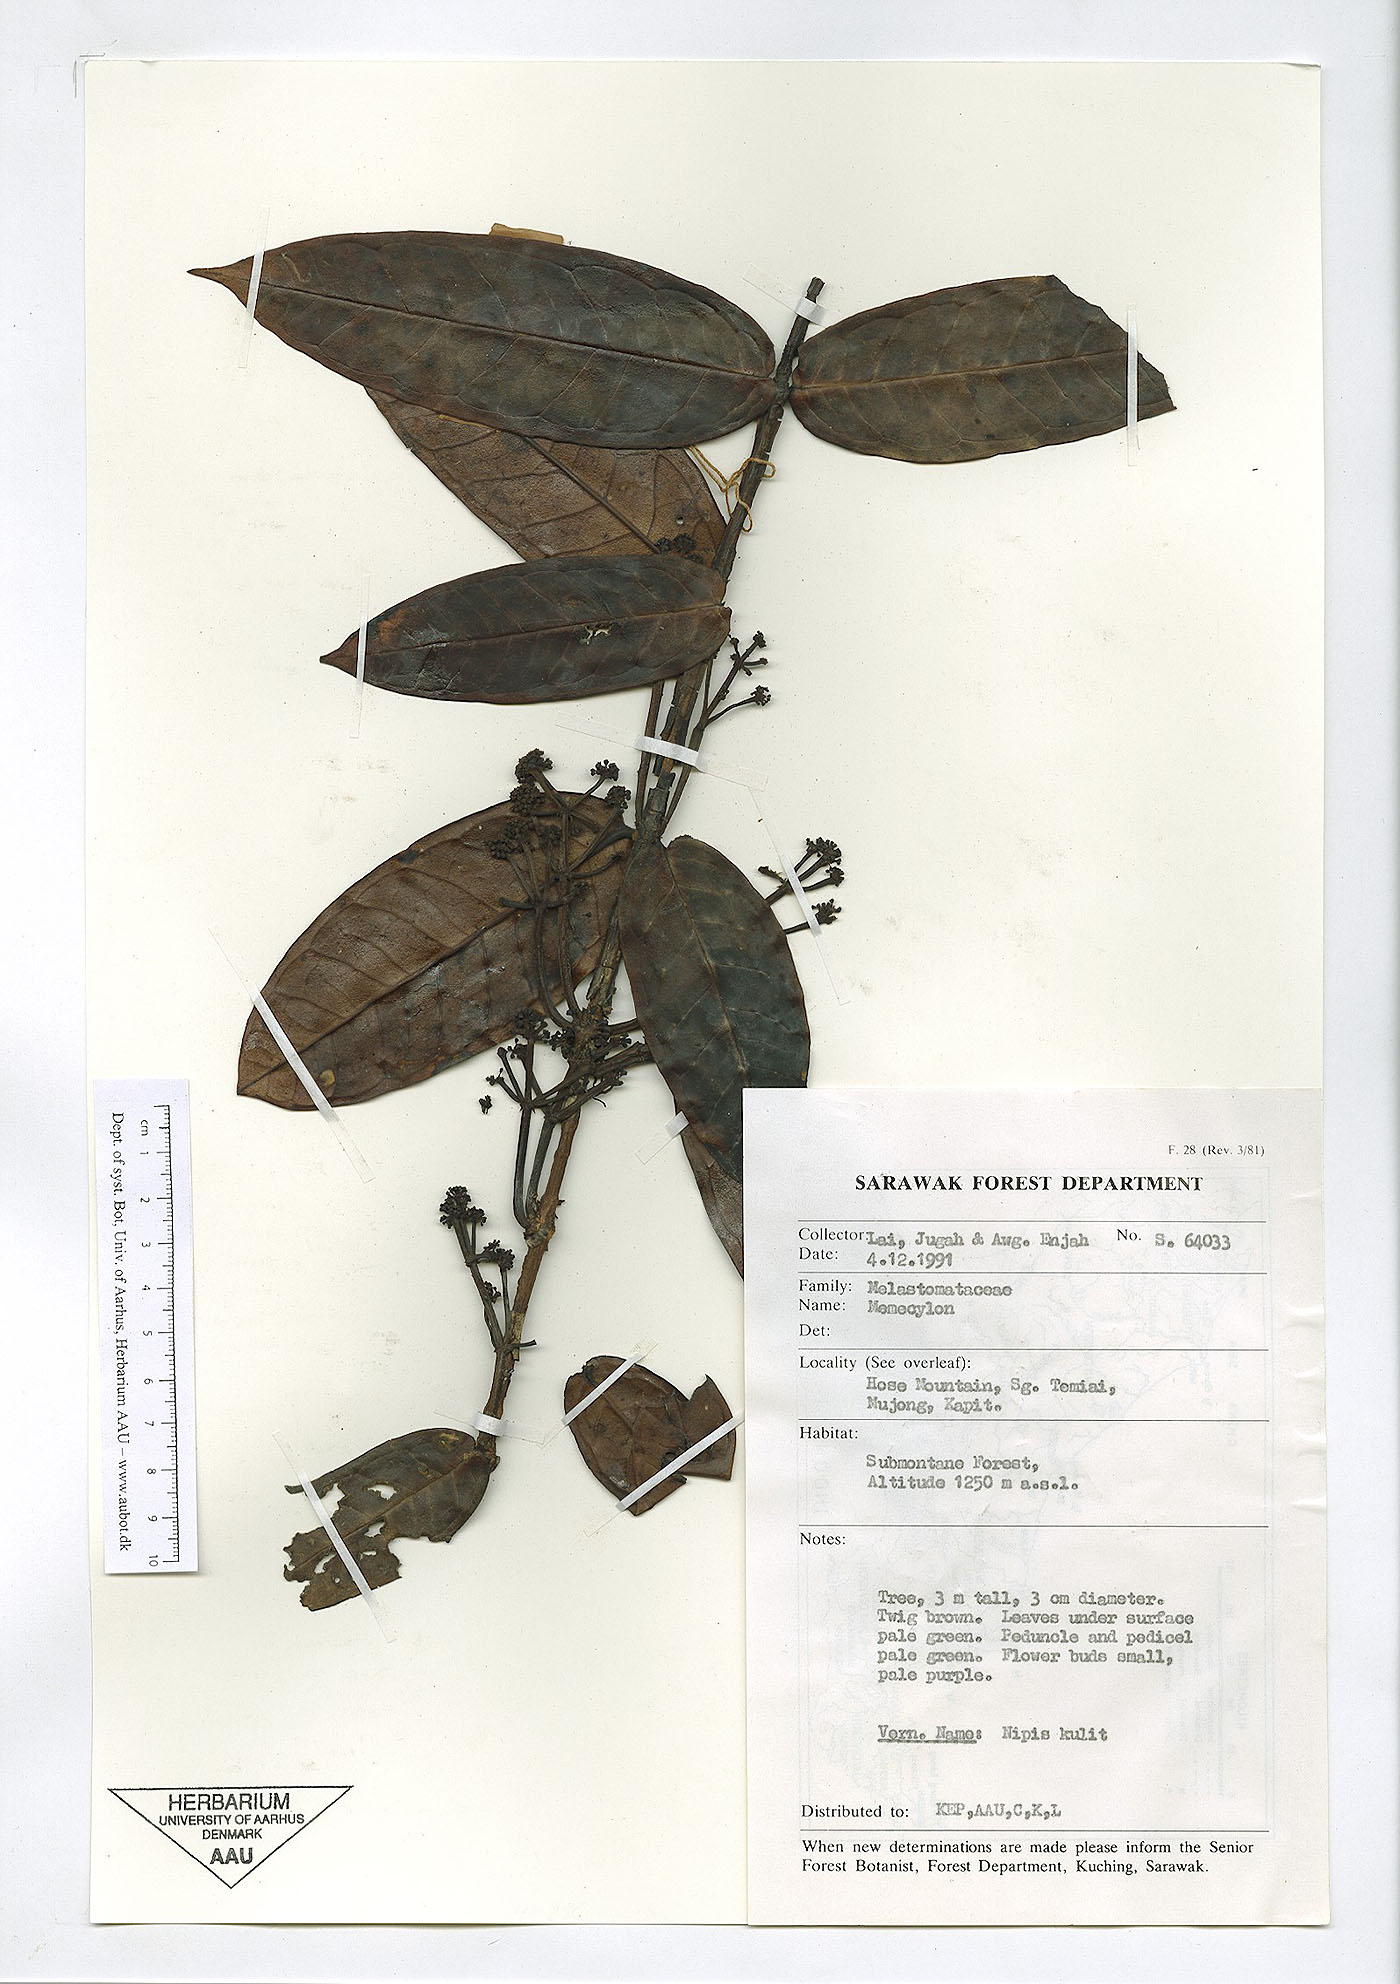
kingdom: Plantae
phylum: Tracheophyta
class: Magnoliopsida
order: Myrtales
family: Melastomataceae
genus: Memecylon
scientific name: Memecylon
